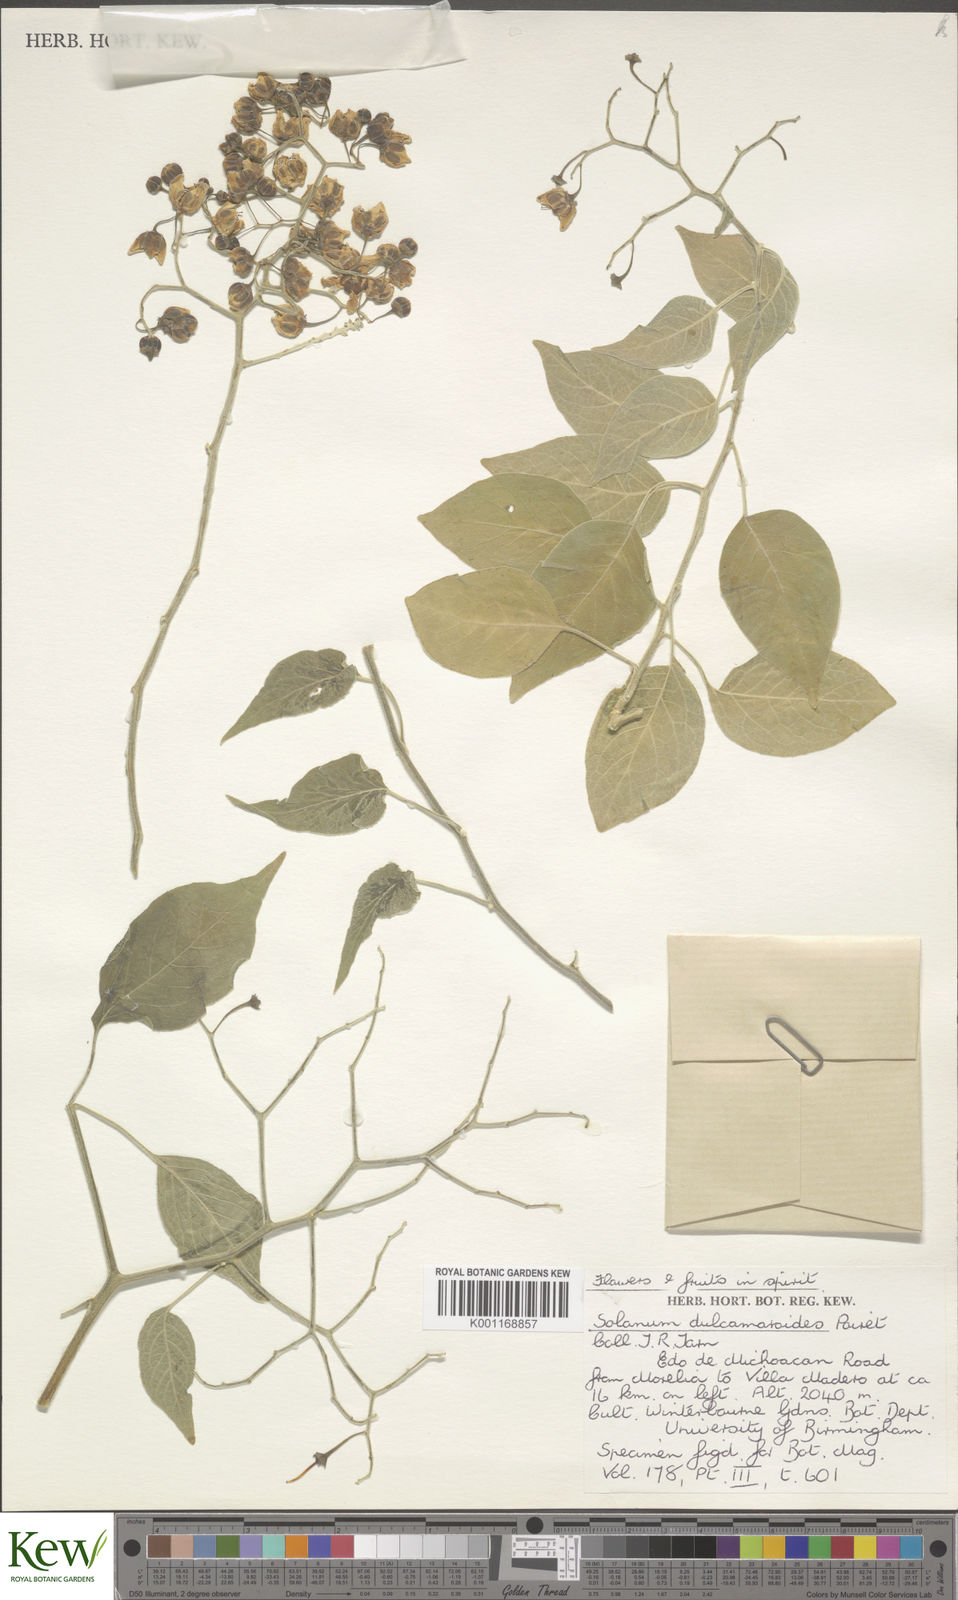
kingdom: Plantae
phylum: Tracheophyta
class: Magnoliopsida
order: Solanales
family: Solanaceae
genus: Solanum
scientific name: Solanum dulcamaroides
